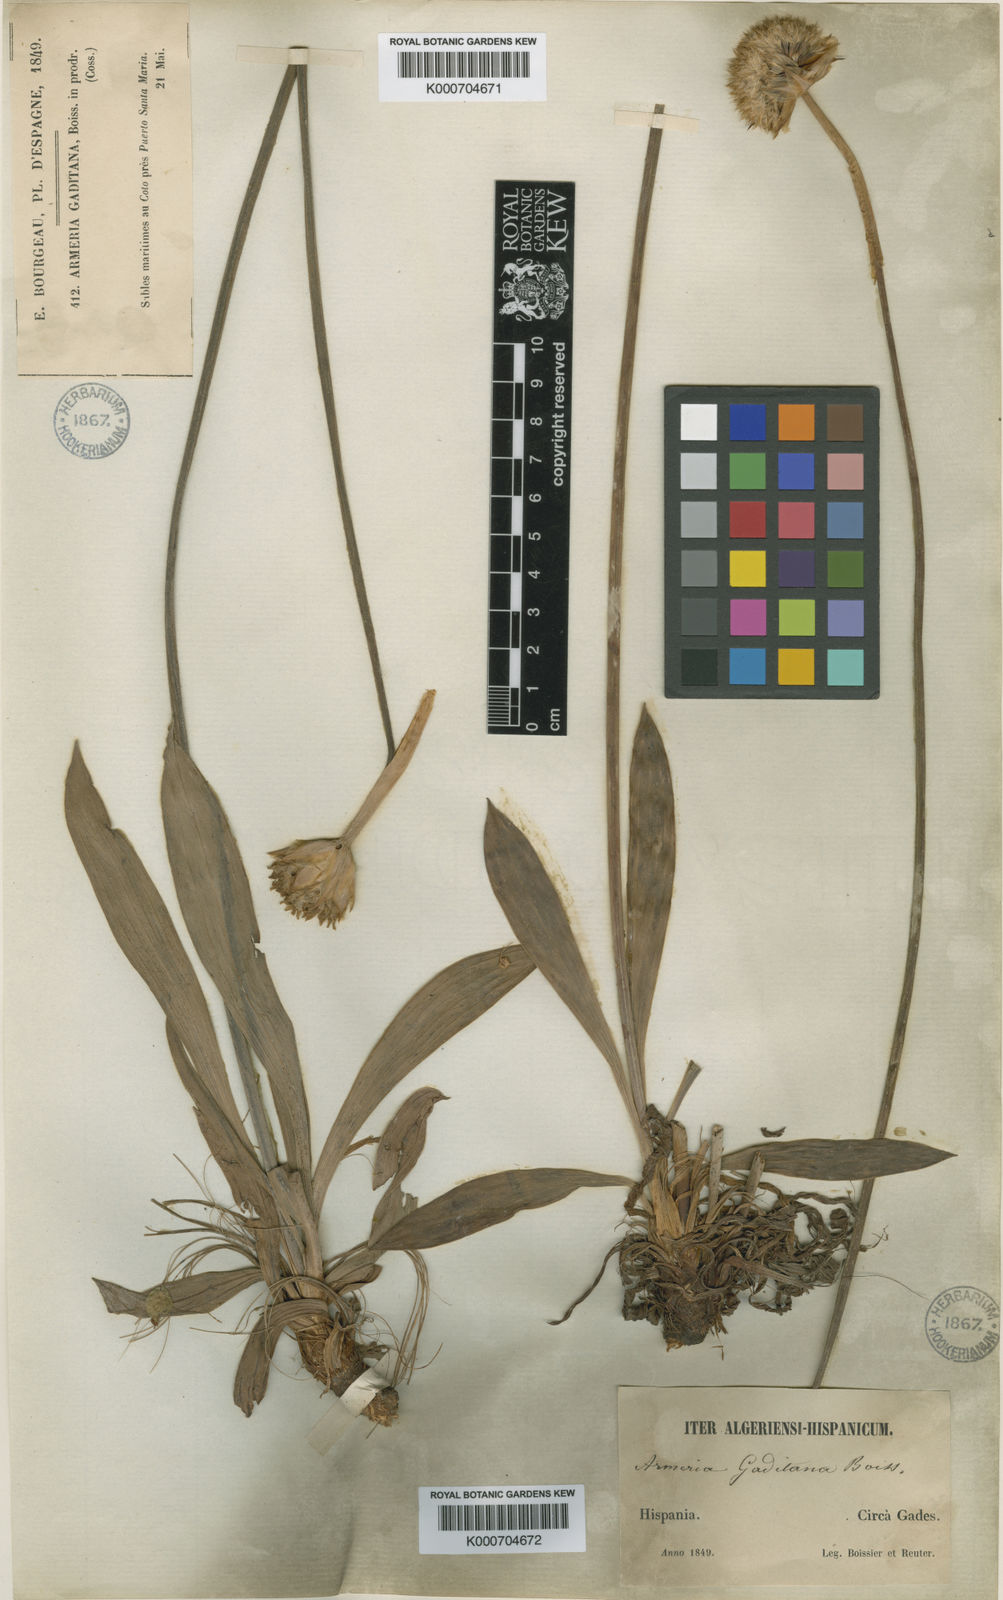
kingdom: Plantae
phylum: Tracheophyta
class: Magnoliopsida
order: Caryophyllales
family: Plumbaginaceae
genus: Armeria
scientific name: Armeria gaditana
